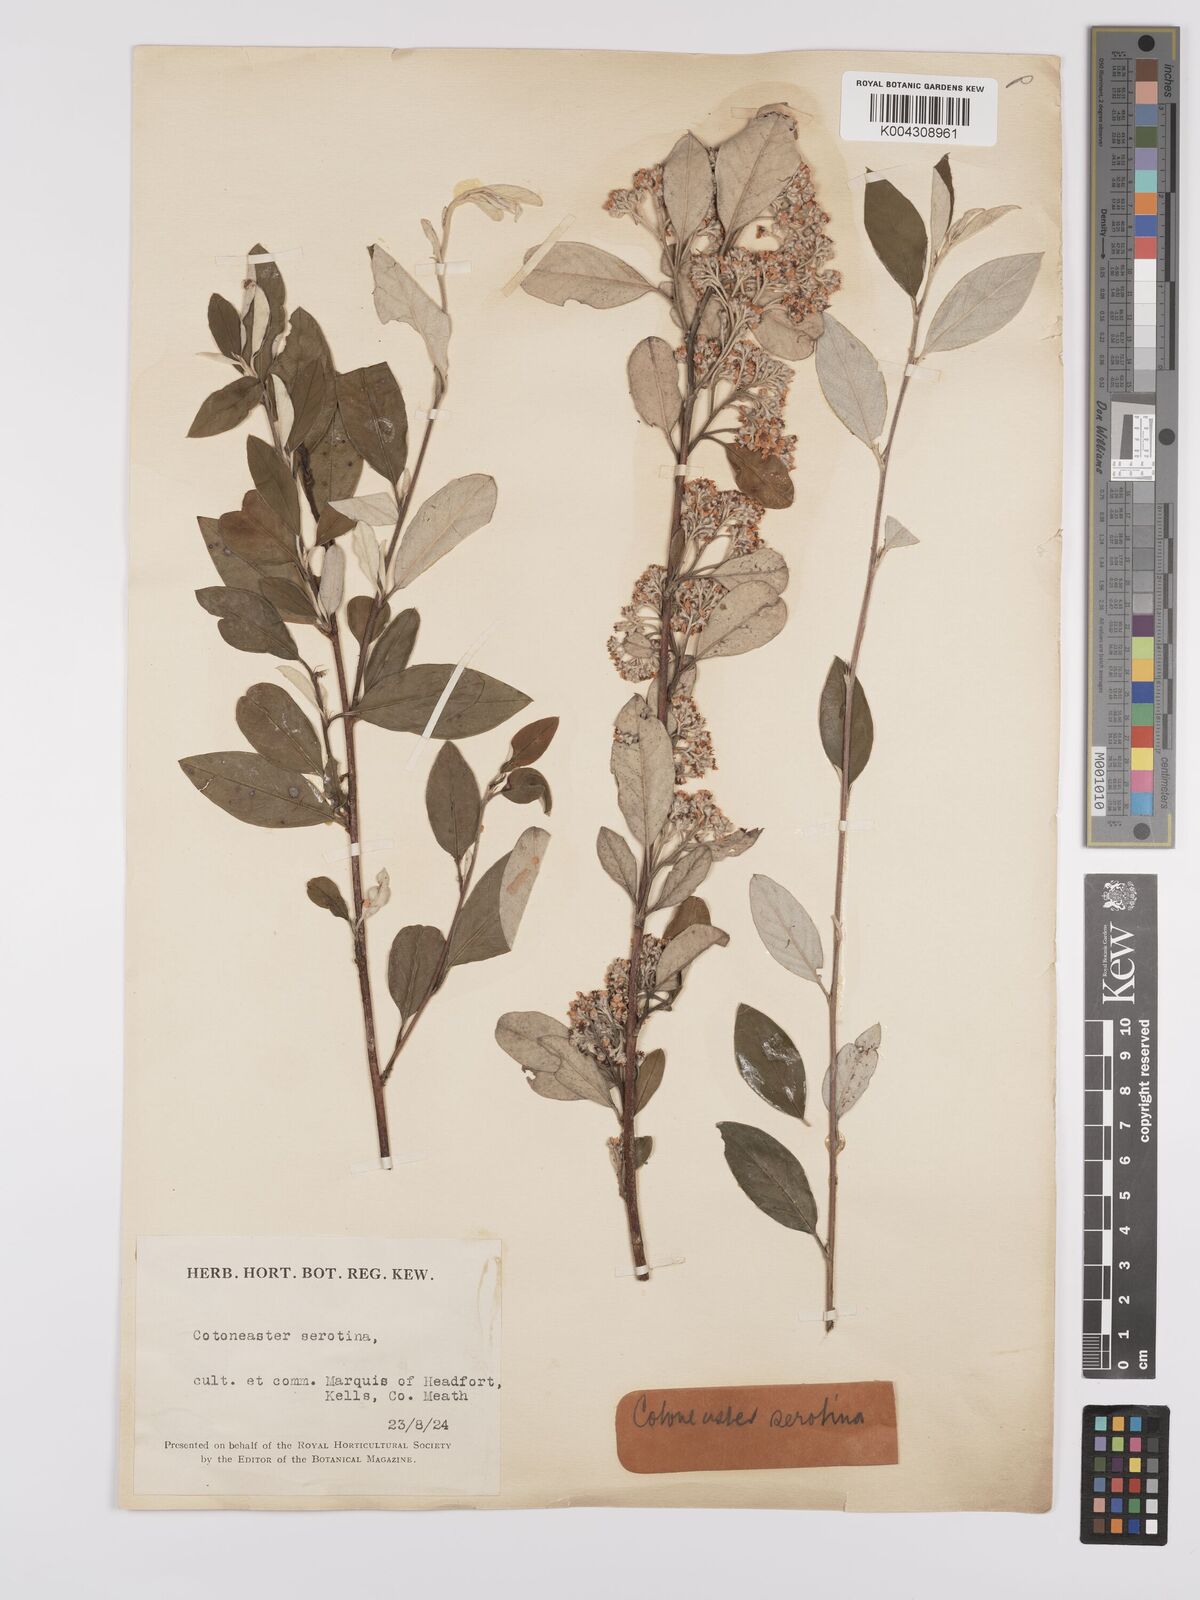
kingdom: Plantae
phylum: Tracheophyta
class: Magnoliopsida
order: Rosales
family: Rosaceae
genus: Cotoneaster
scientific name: Cotoneaster pannosus
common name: Silverleaf cotoneaster
